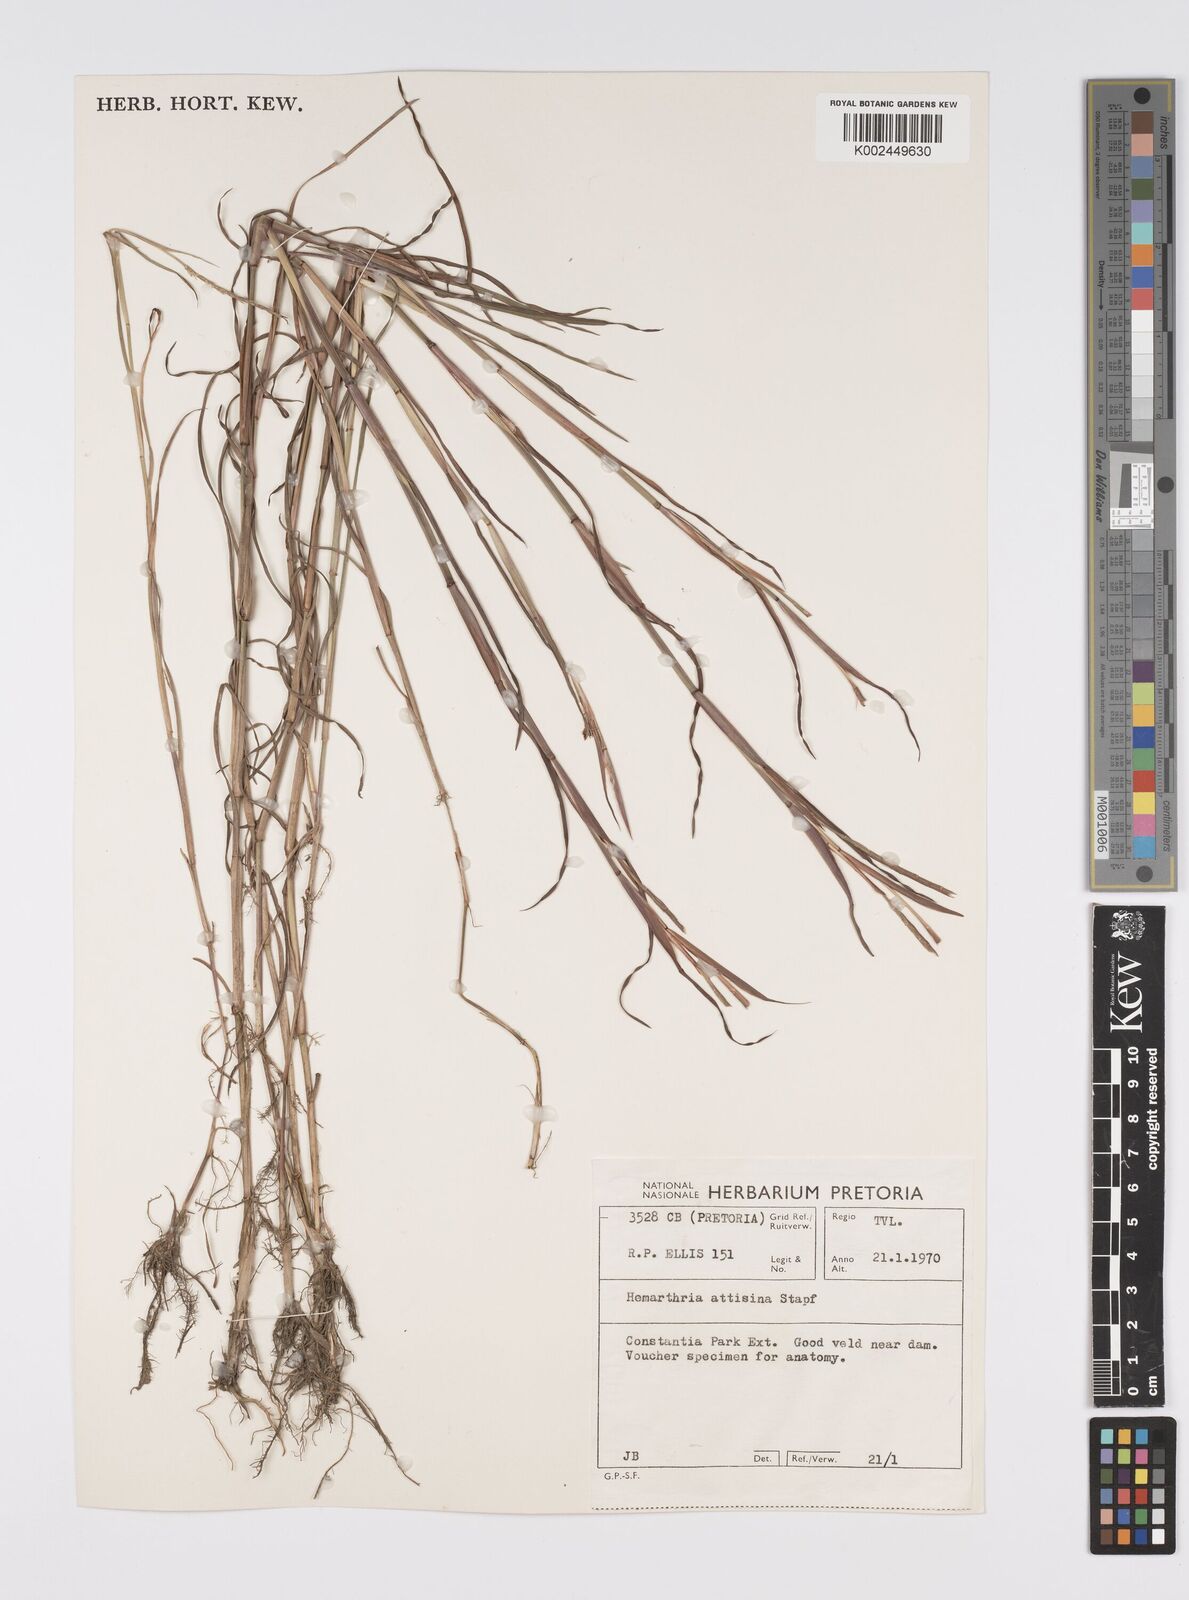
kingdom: Plantae
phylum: Tracheophyta
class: Liliopsida
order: Poales
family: Poaceae
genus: Hemarthria
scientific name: Hemarthria altissima
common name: African jointgrass
